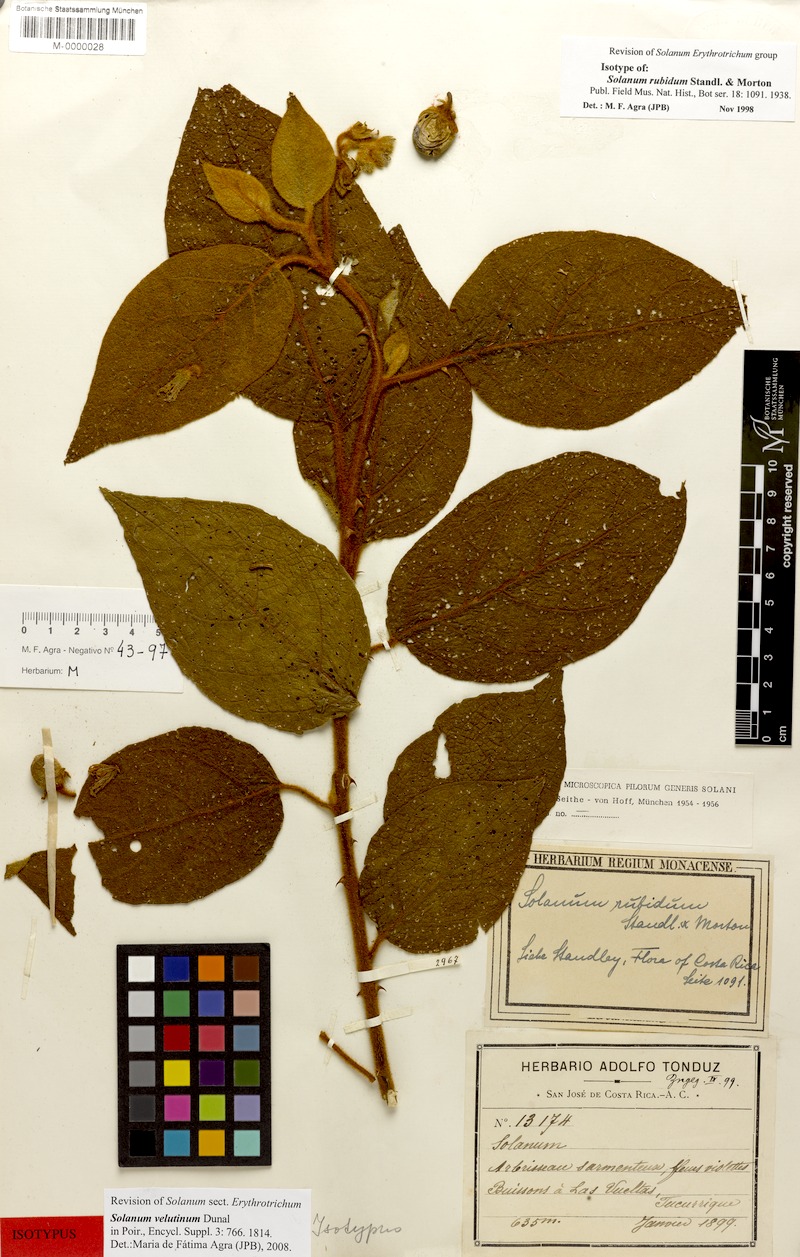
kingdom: Plantae
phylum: Tracheophyta
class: Magnoliopsida
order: Solanales
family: Solanaceae
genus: Solanum
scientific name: Solanum velutinum
